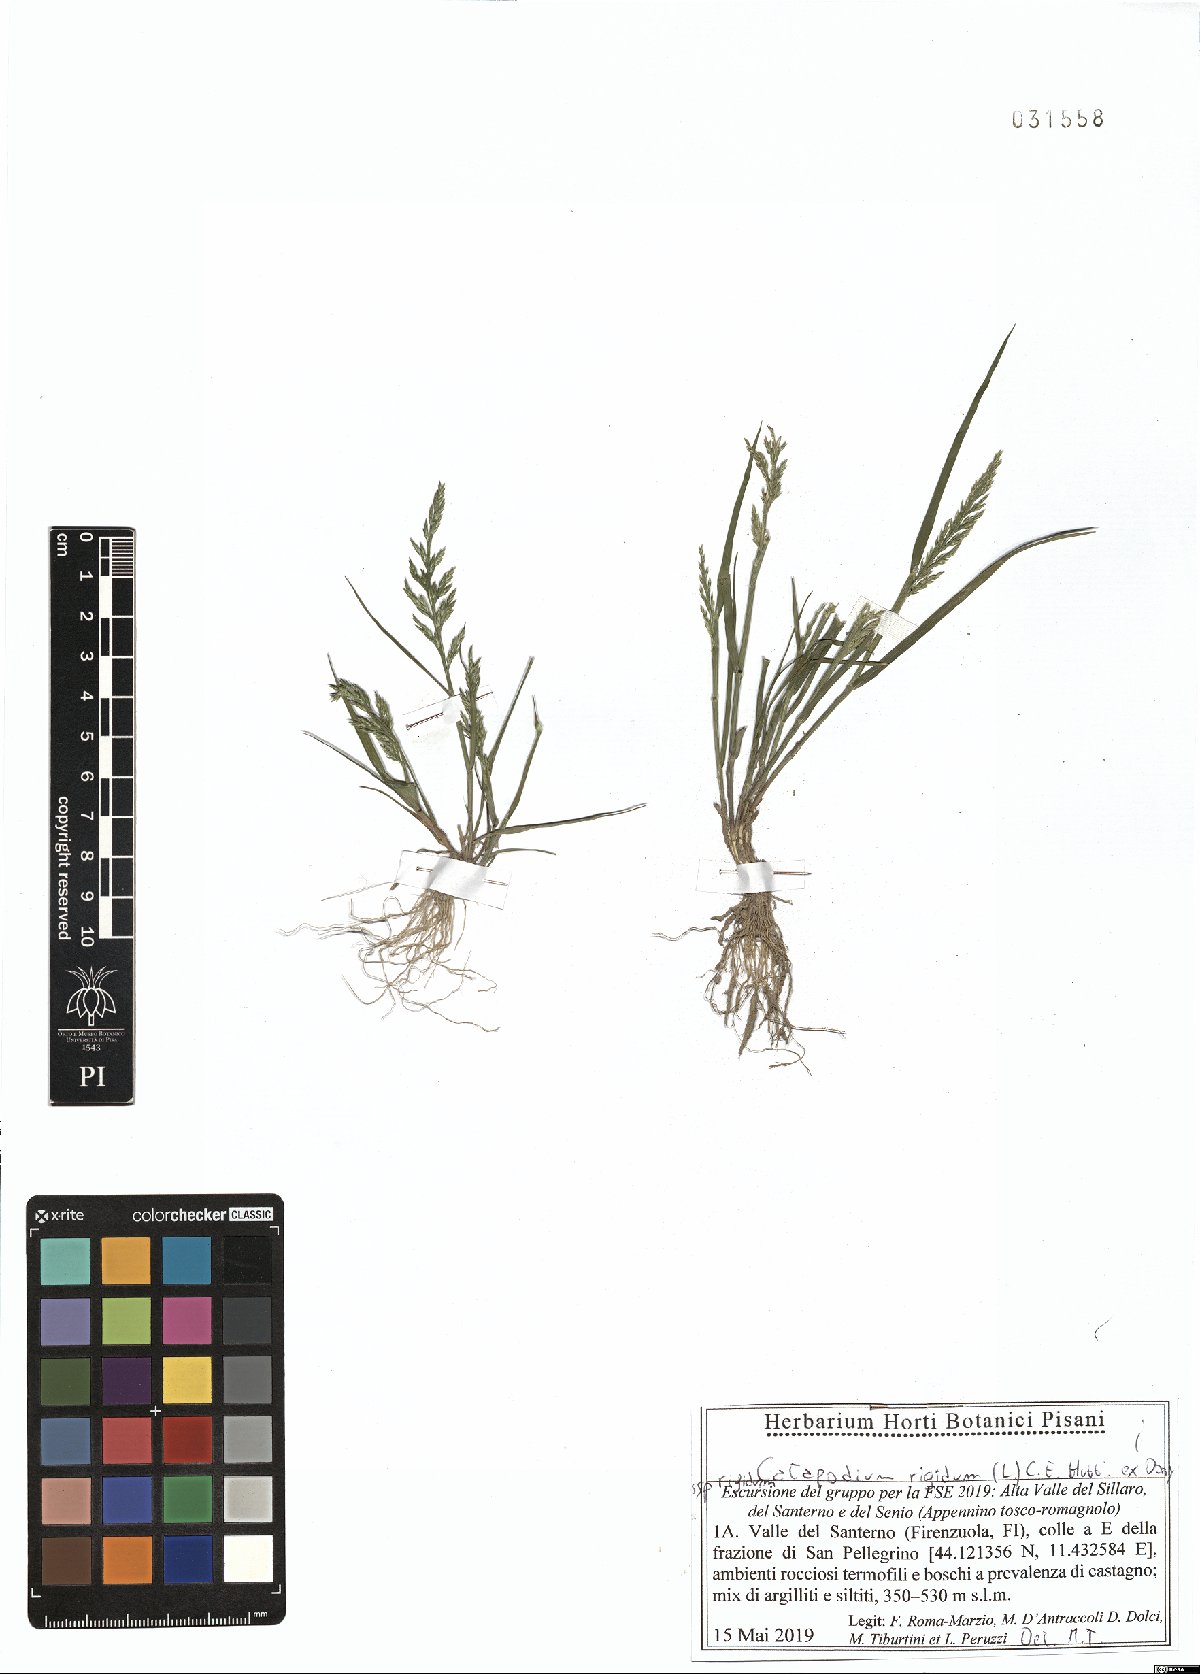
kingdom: Plantae
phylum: Tracheophyta
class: Liliopsida
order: Poales
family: Poaceae
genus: Catapodium
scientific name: Catapodium rigidum
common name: Fern-grass
